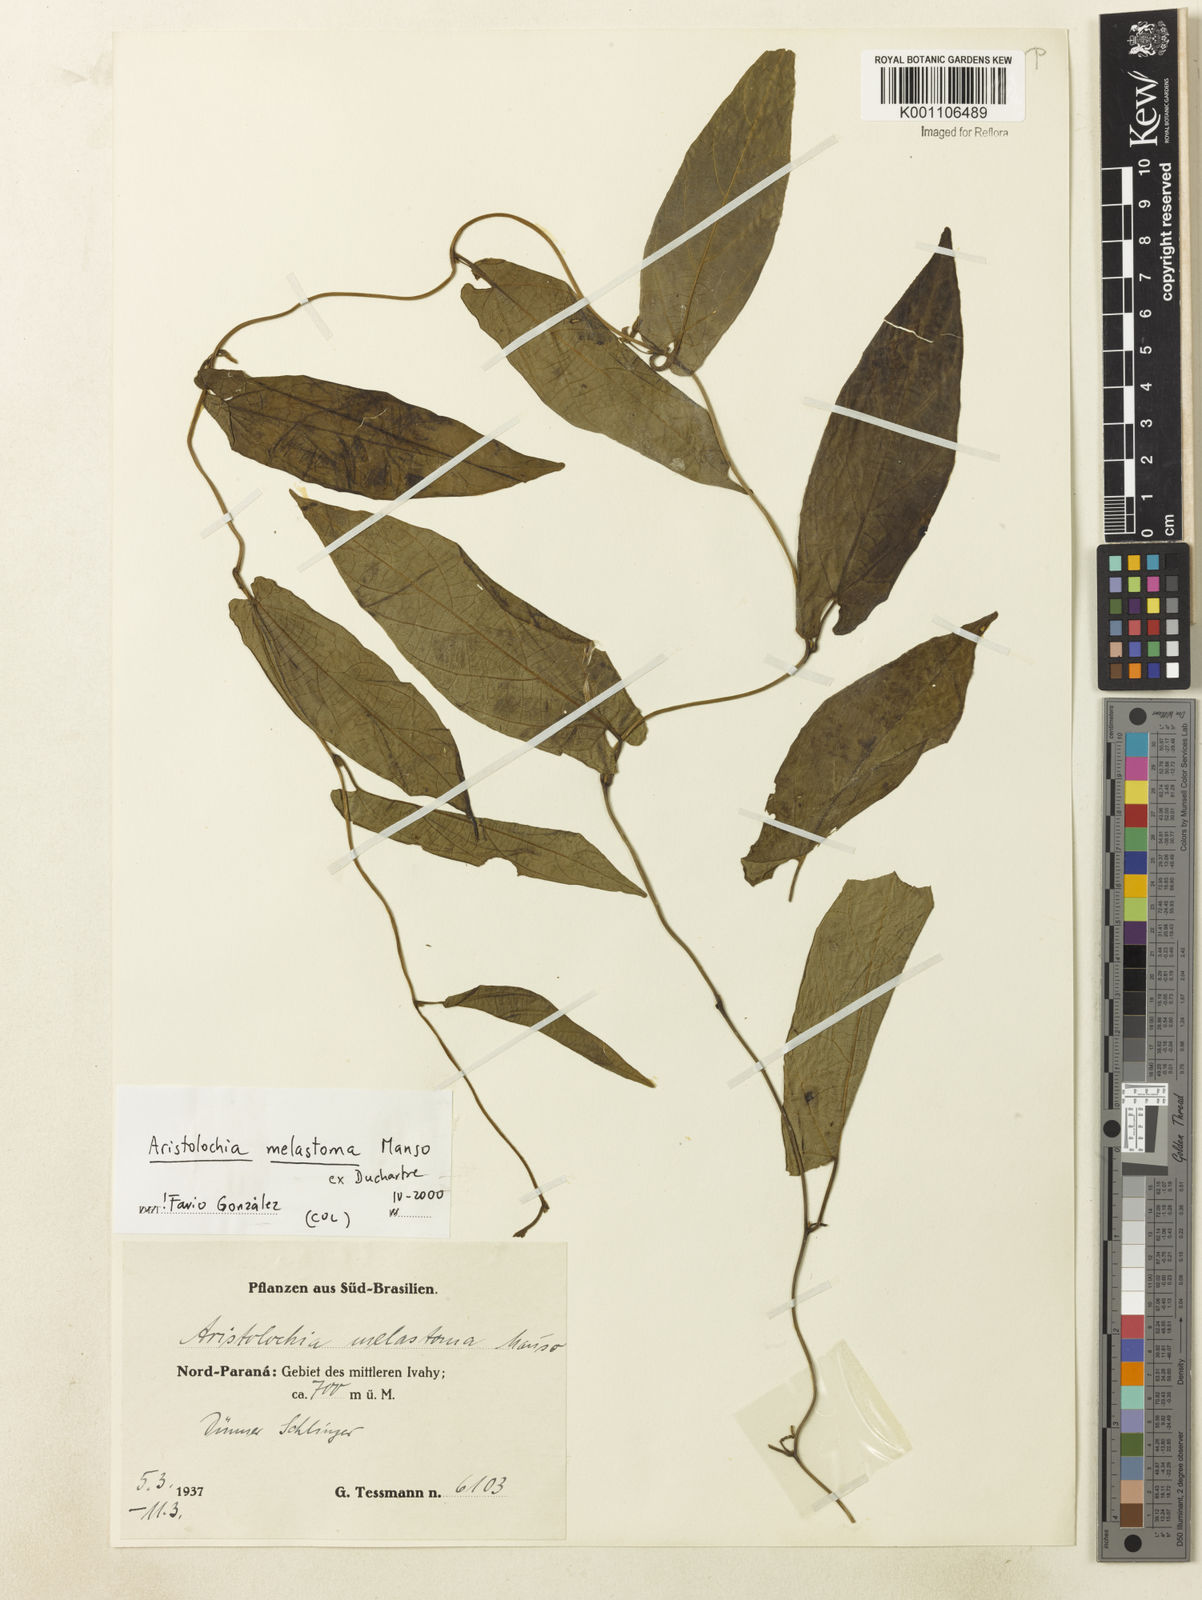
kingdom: Plantae
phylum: Tracheophyta
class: Magnoliopsida
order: Piperales
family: Aristolochiaceae
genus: Aristolochia
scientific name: Aristolochia melastoma
